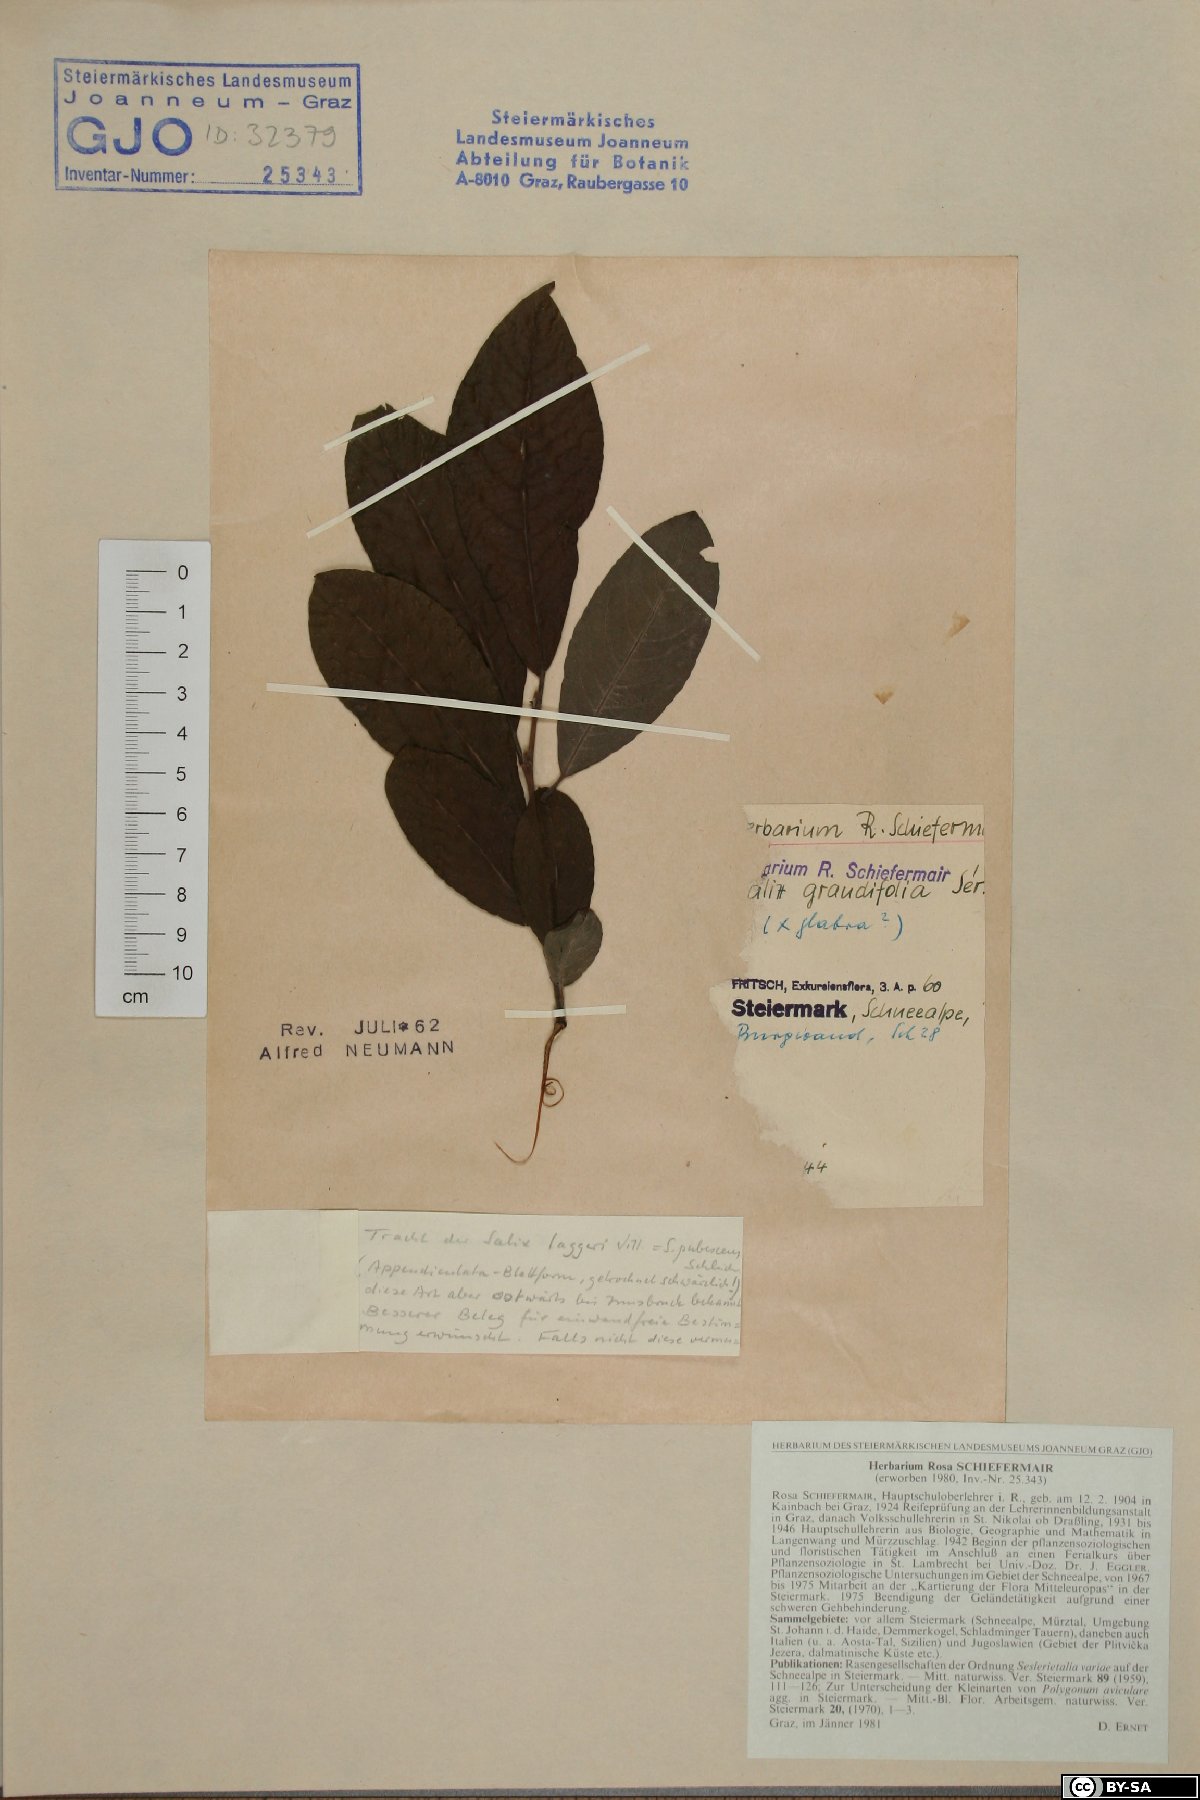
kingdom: Plantae
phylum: Tracheophyta
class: Magnoliopsida
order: Malpighiales
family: Salicaceae
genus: Salix
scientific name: Salix appendiculata
